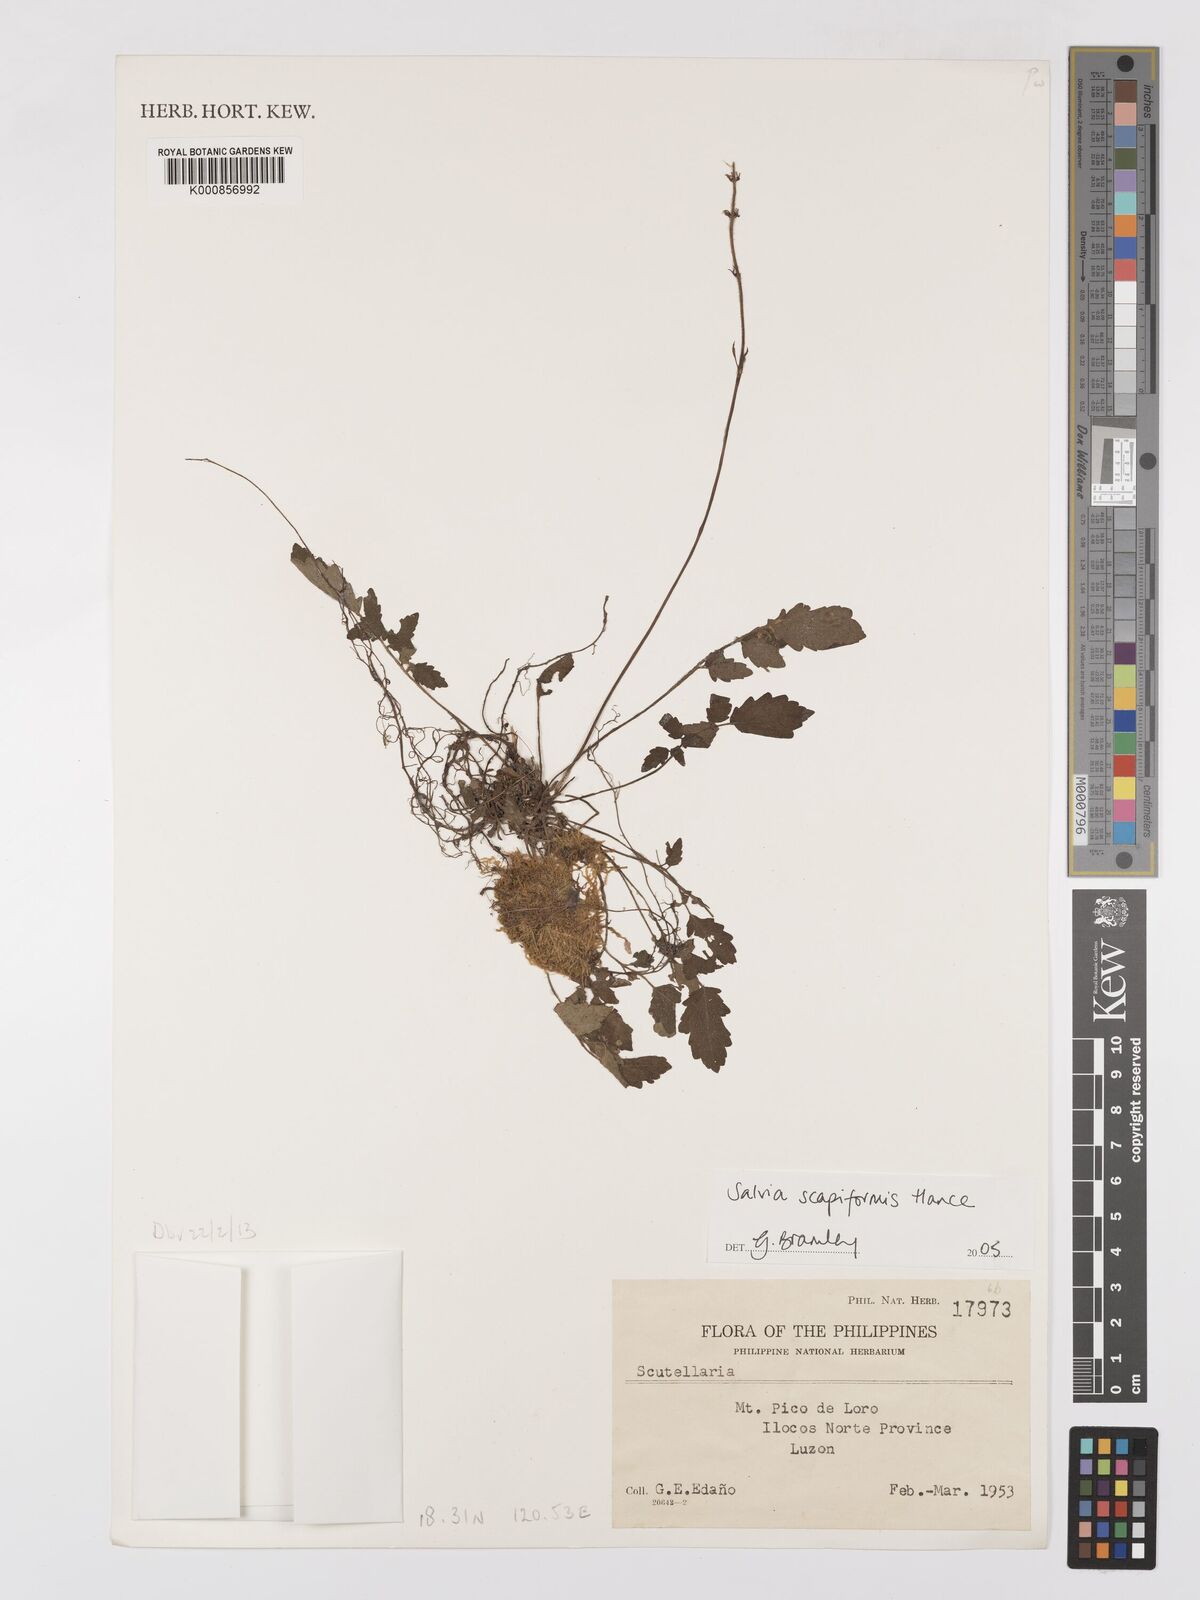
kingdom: Plantae
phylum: Tracheophyta
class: Magnoliopsida
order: Lamiales
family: Lamiaceae
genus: Salvia
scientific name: Salvia scapiformis
